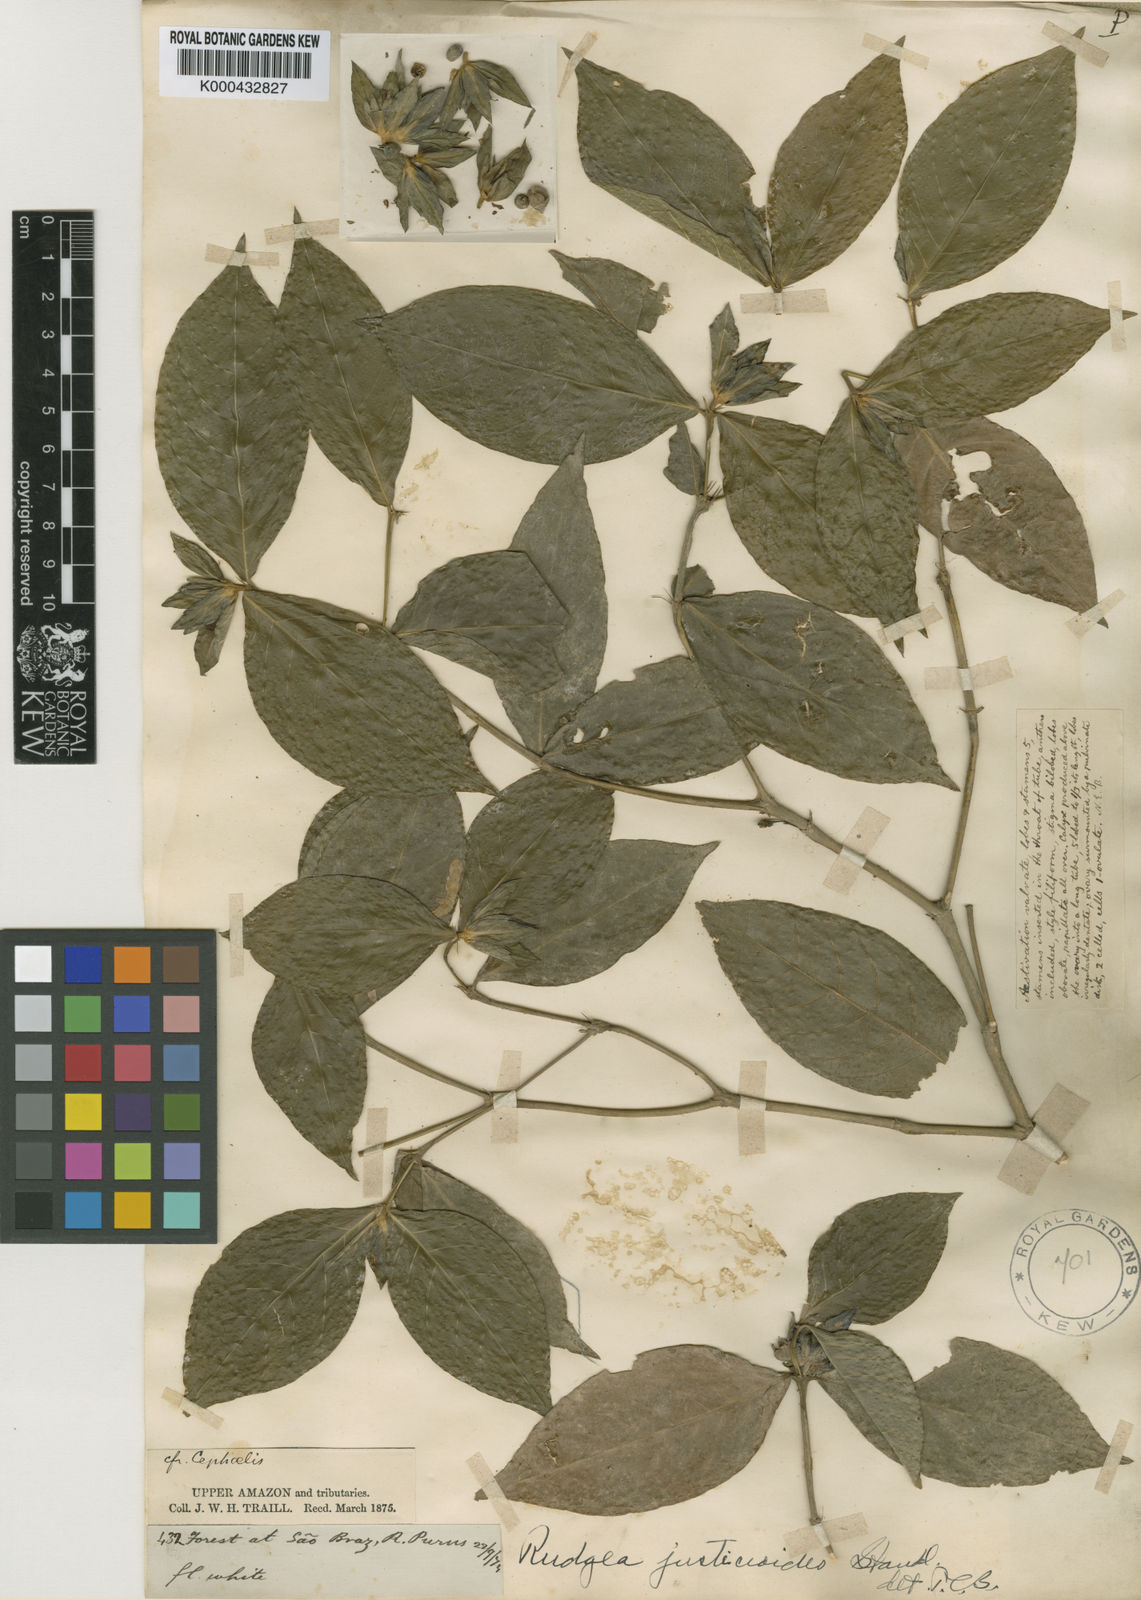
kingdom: Plantae
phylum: Tracheophyta
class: Magnoliopsida
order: Gentianales
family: Rubiaceae
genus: Palicourea
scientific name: Palicourea hebeclada
